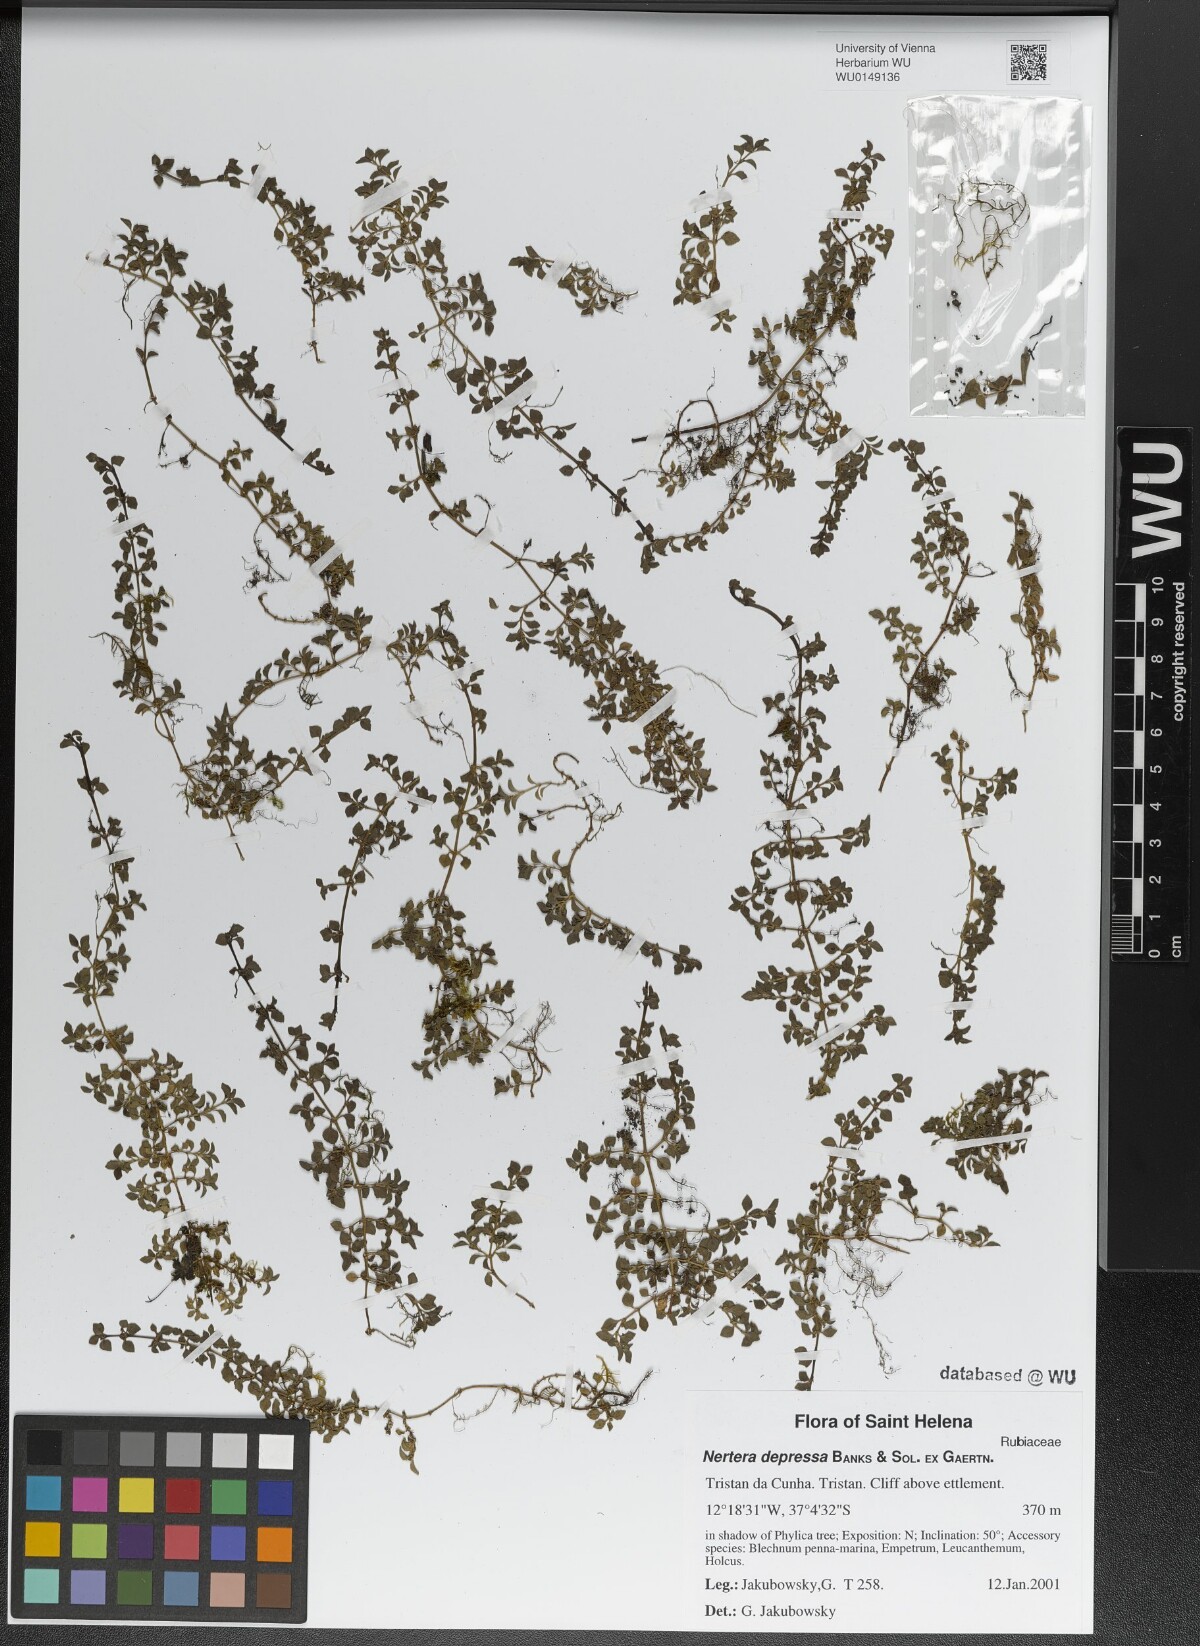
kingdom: Plantae
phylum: Tracheophyta
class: Magnoliopsida
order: Gentianales
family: Rubiaceae
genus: Nertera
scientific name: Nertera granadensis
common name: Beadplant
